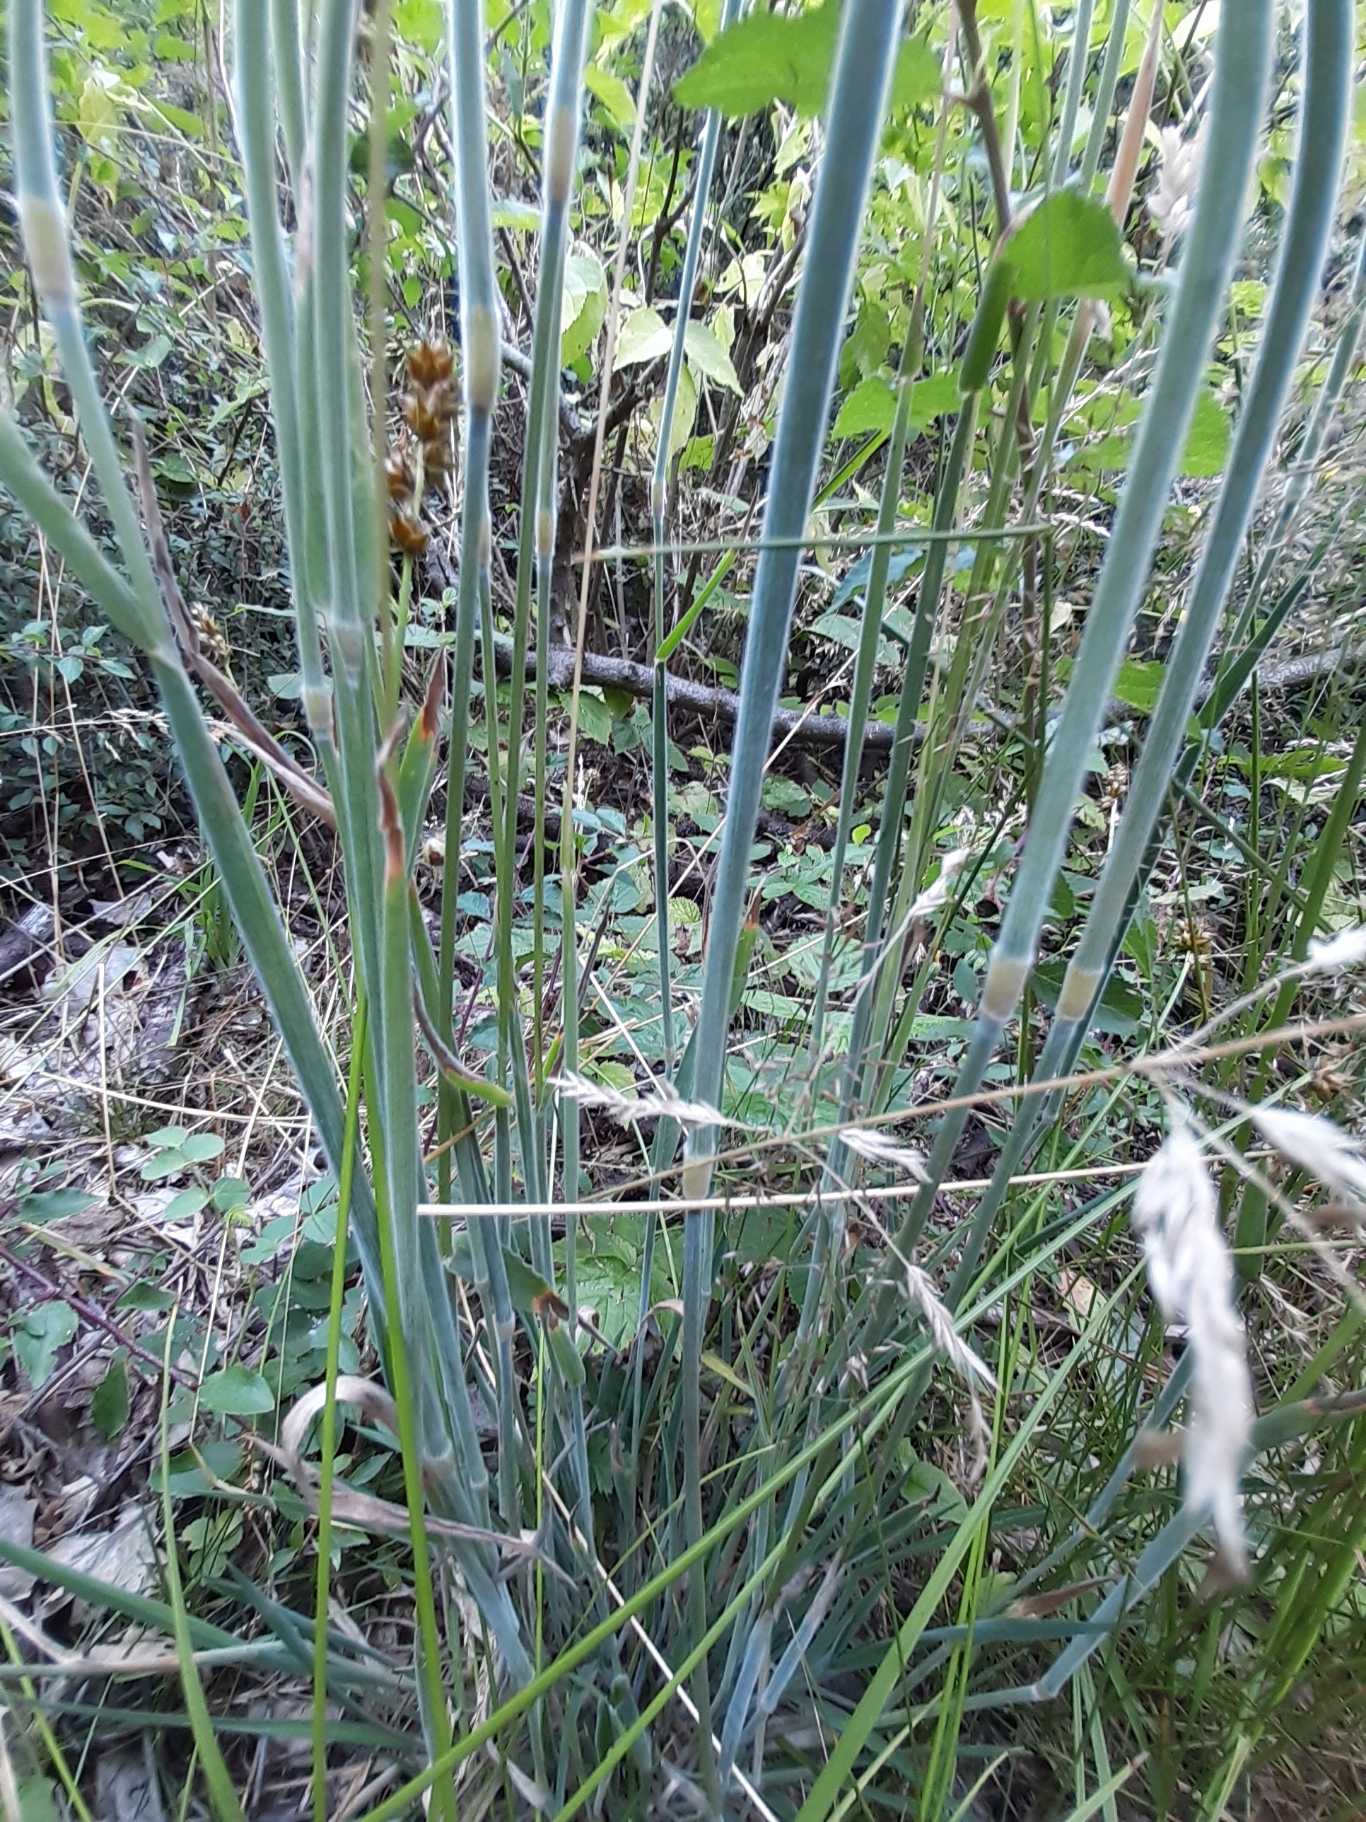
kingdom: Plantae
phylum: Tracheophyta
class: Liliopsida
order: Poales
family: Poaceae
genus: Holcus
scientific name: Holcus lanatus
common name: Fløjlsgræs
